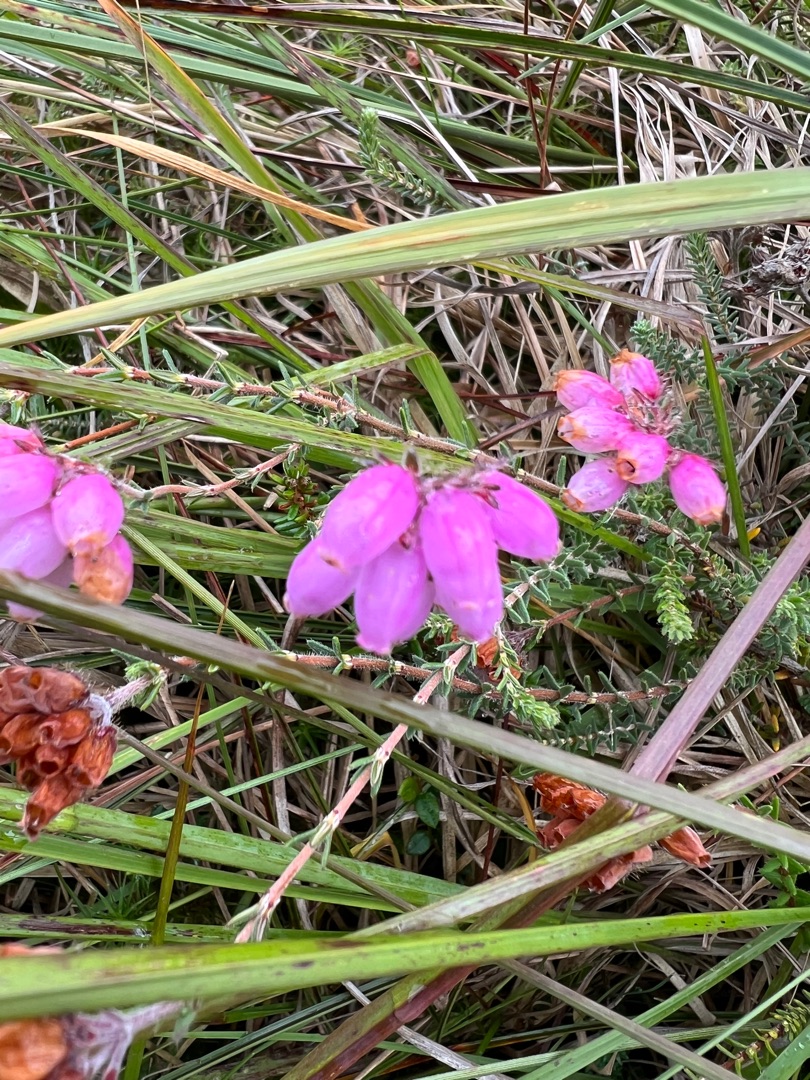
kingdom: Plantae
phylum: Tracheophyta
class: Magnoliopsida
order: Ericales
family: Ericaceae
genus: Erica
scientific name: Erica tetralix
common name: Klokkelyng
